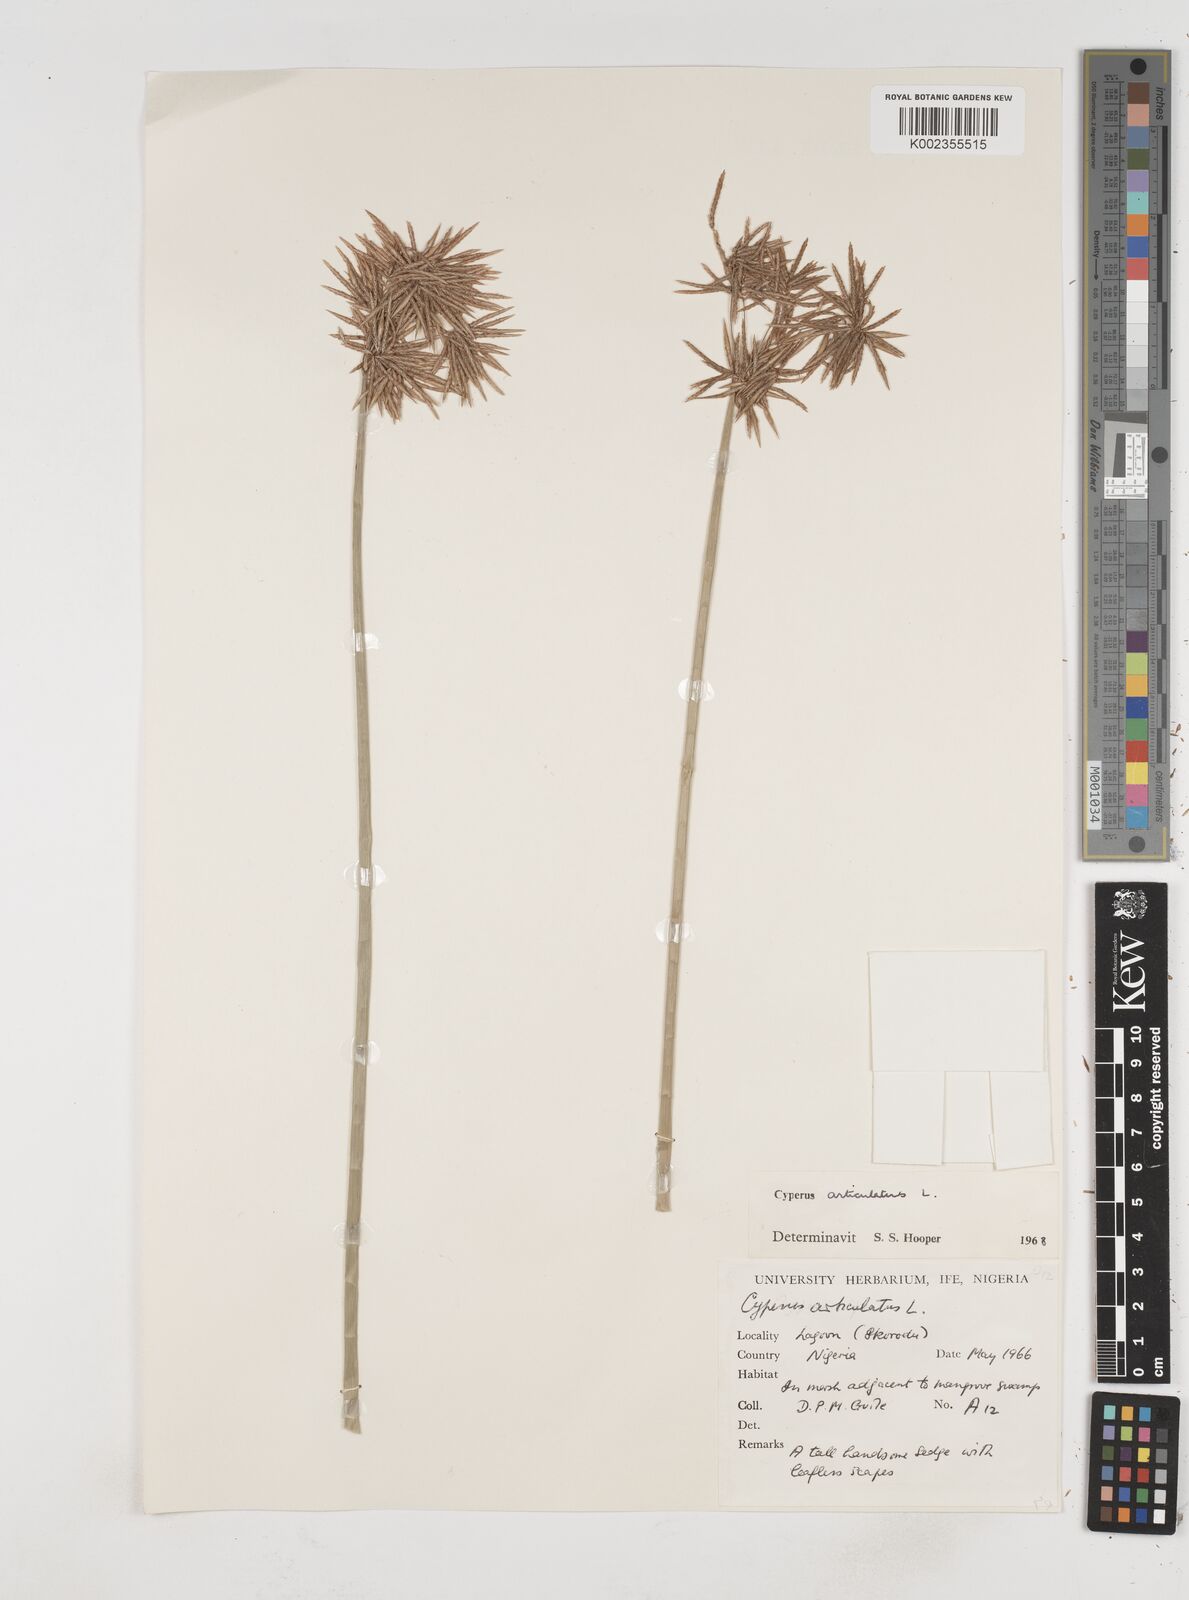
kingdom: Plantae
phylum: Tracheophyta
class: Liliopsida
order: Poales
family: Cyperaceae
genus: Cyperus
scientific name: Cyperus articulatus
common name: Jointed flatsedge
